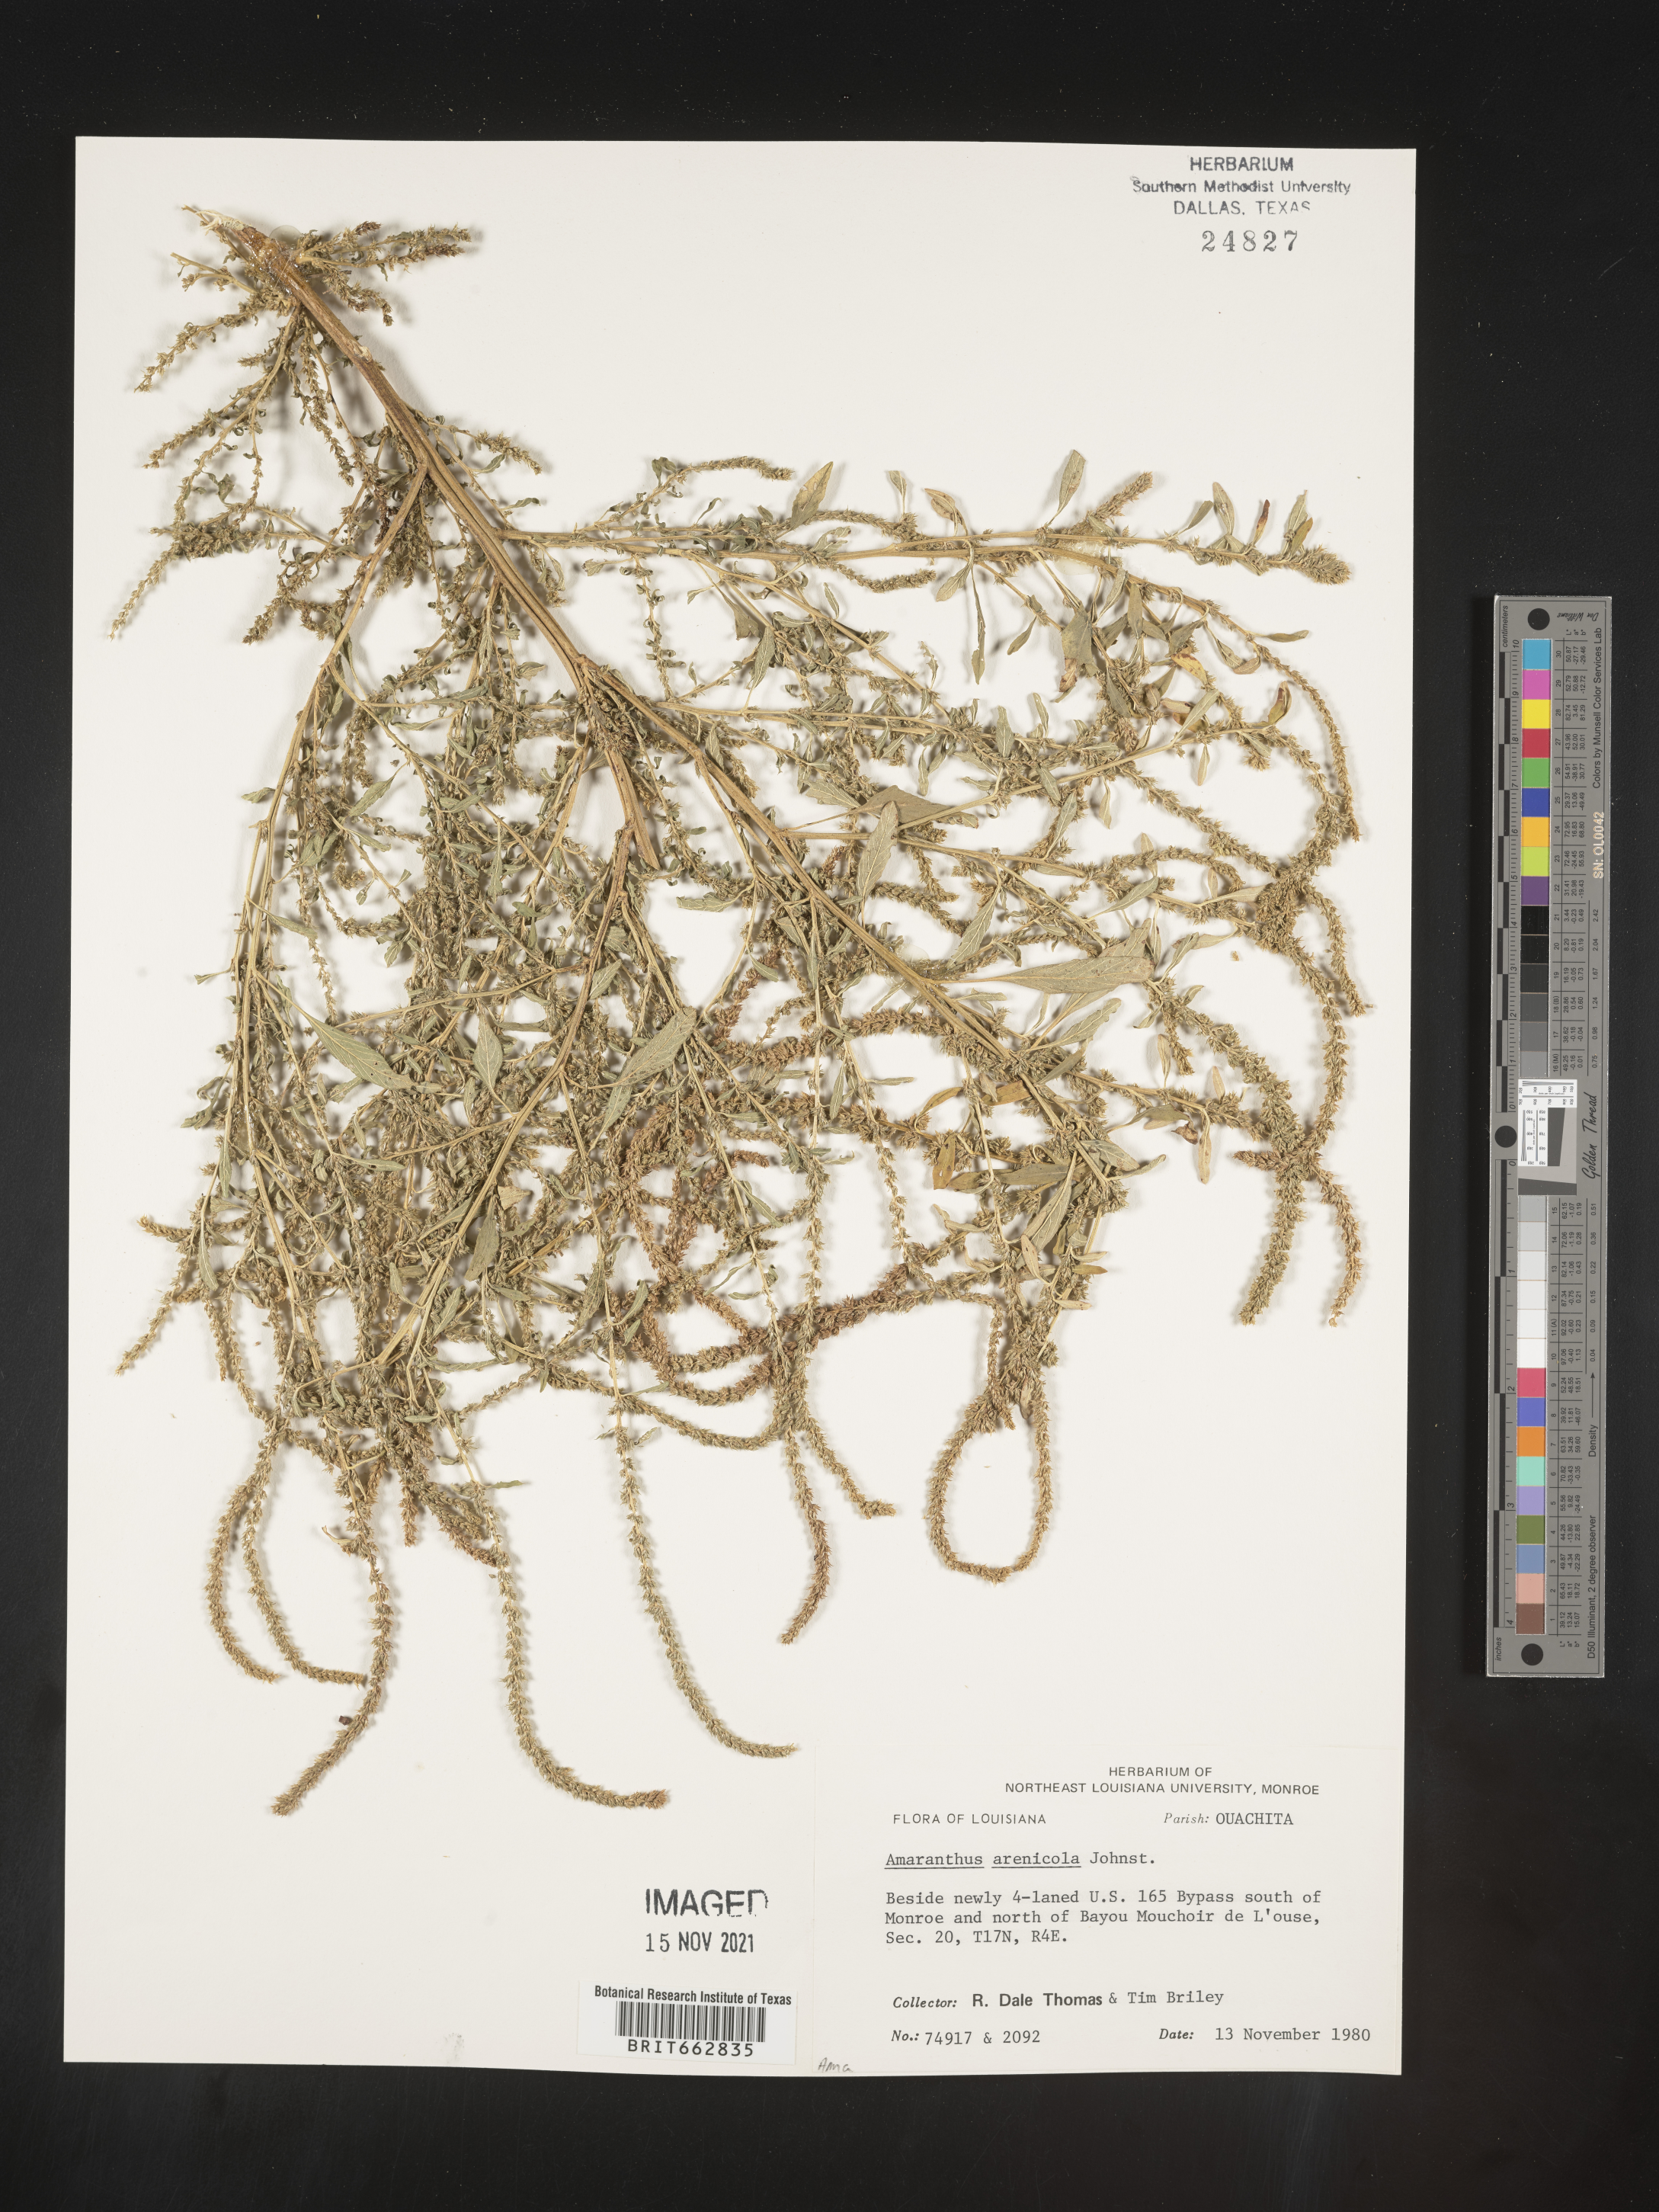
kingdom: Plantae
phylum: Tracheophyta
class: Magnoliopsida
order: Caryophyllales
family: Amaranthaceae
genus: Amaranthus
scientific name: Amaranthus arenicola
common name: Sandhills amaranth
